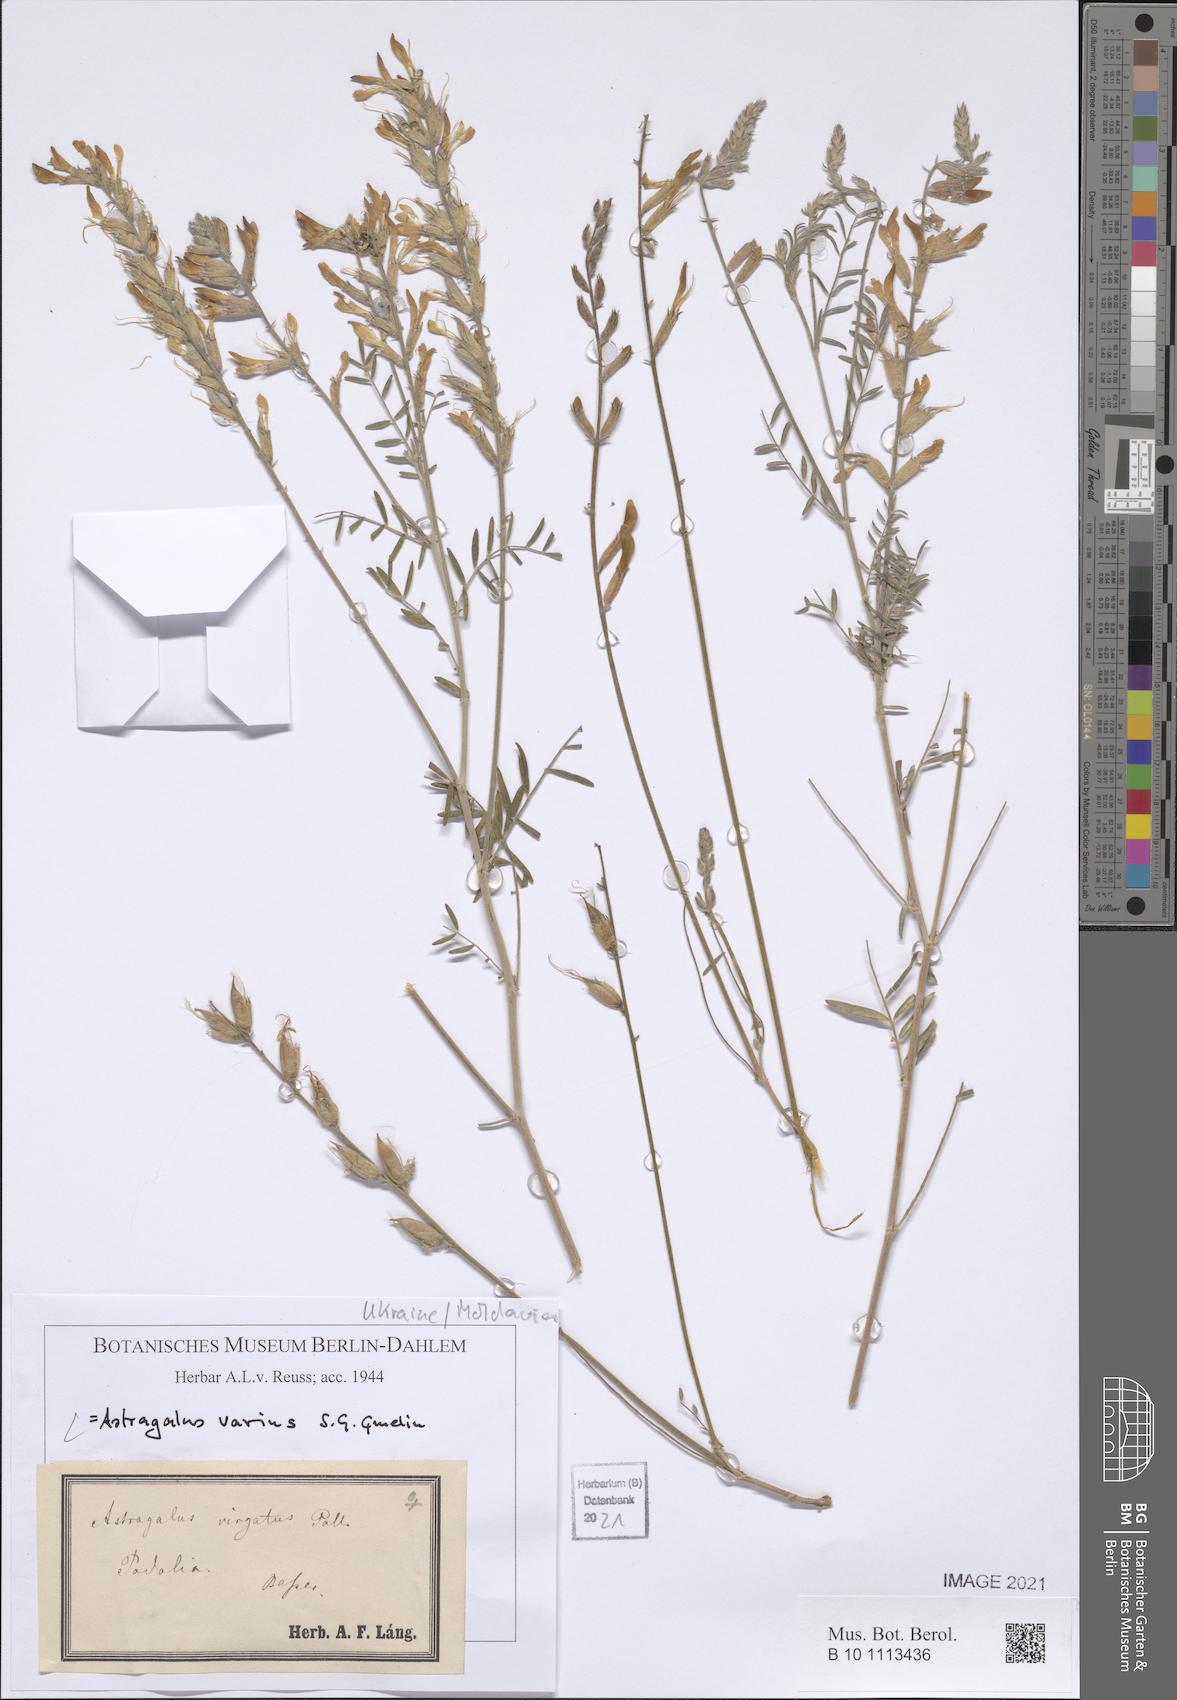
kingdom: Plantae
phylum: Tracheophyta
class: Magnoliopsida
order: Fabales
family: Fabaceae
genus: Astragalus
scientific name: Astragalus varius
